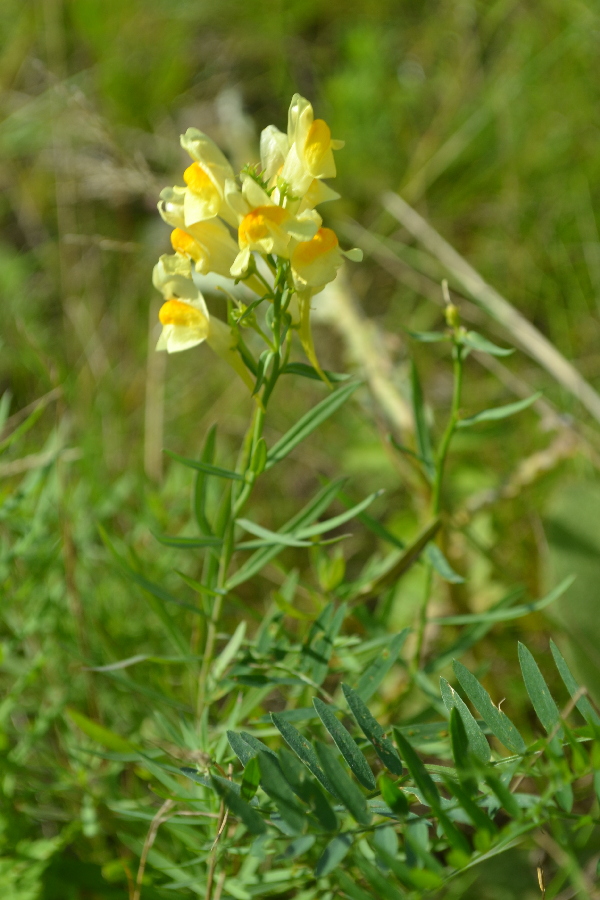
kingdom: Plantae
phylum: Tracheophyta
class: Magnoliopsida
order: Lamiales
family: Plantaginaceae
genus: Linaria
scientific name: Linaria vulgaris
